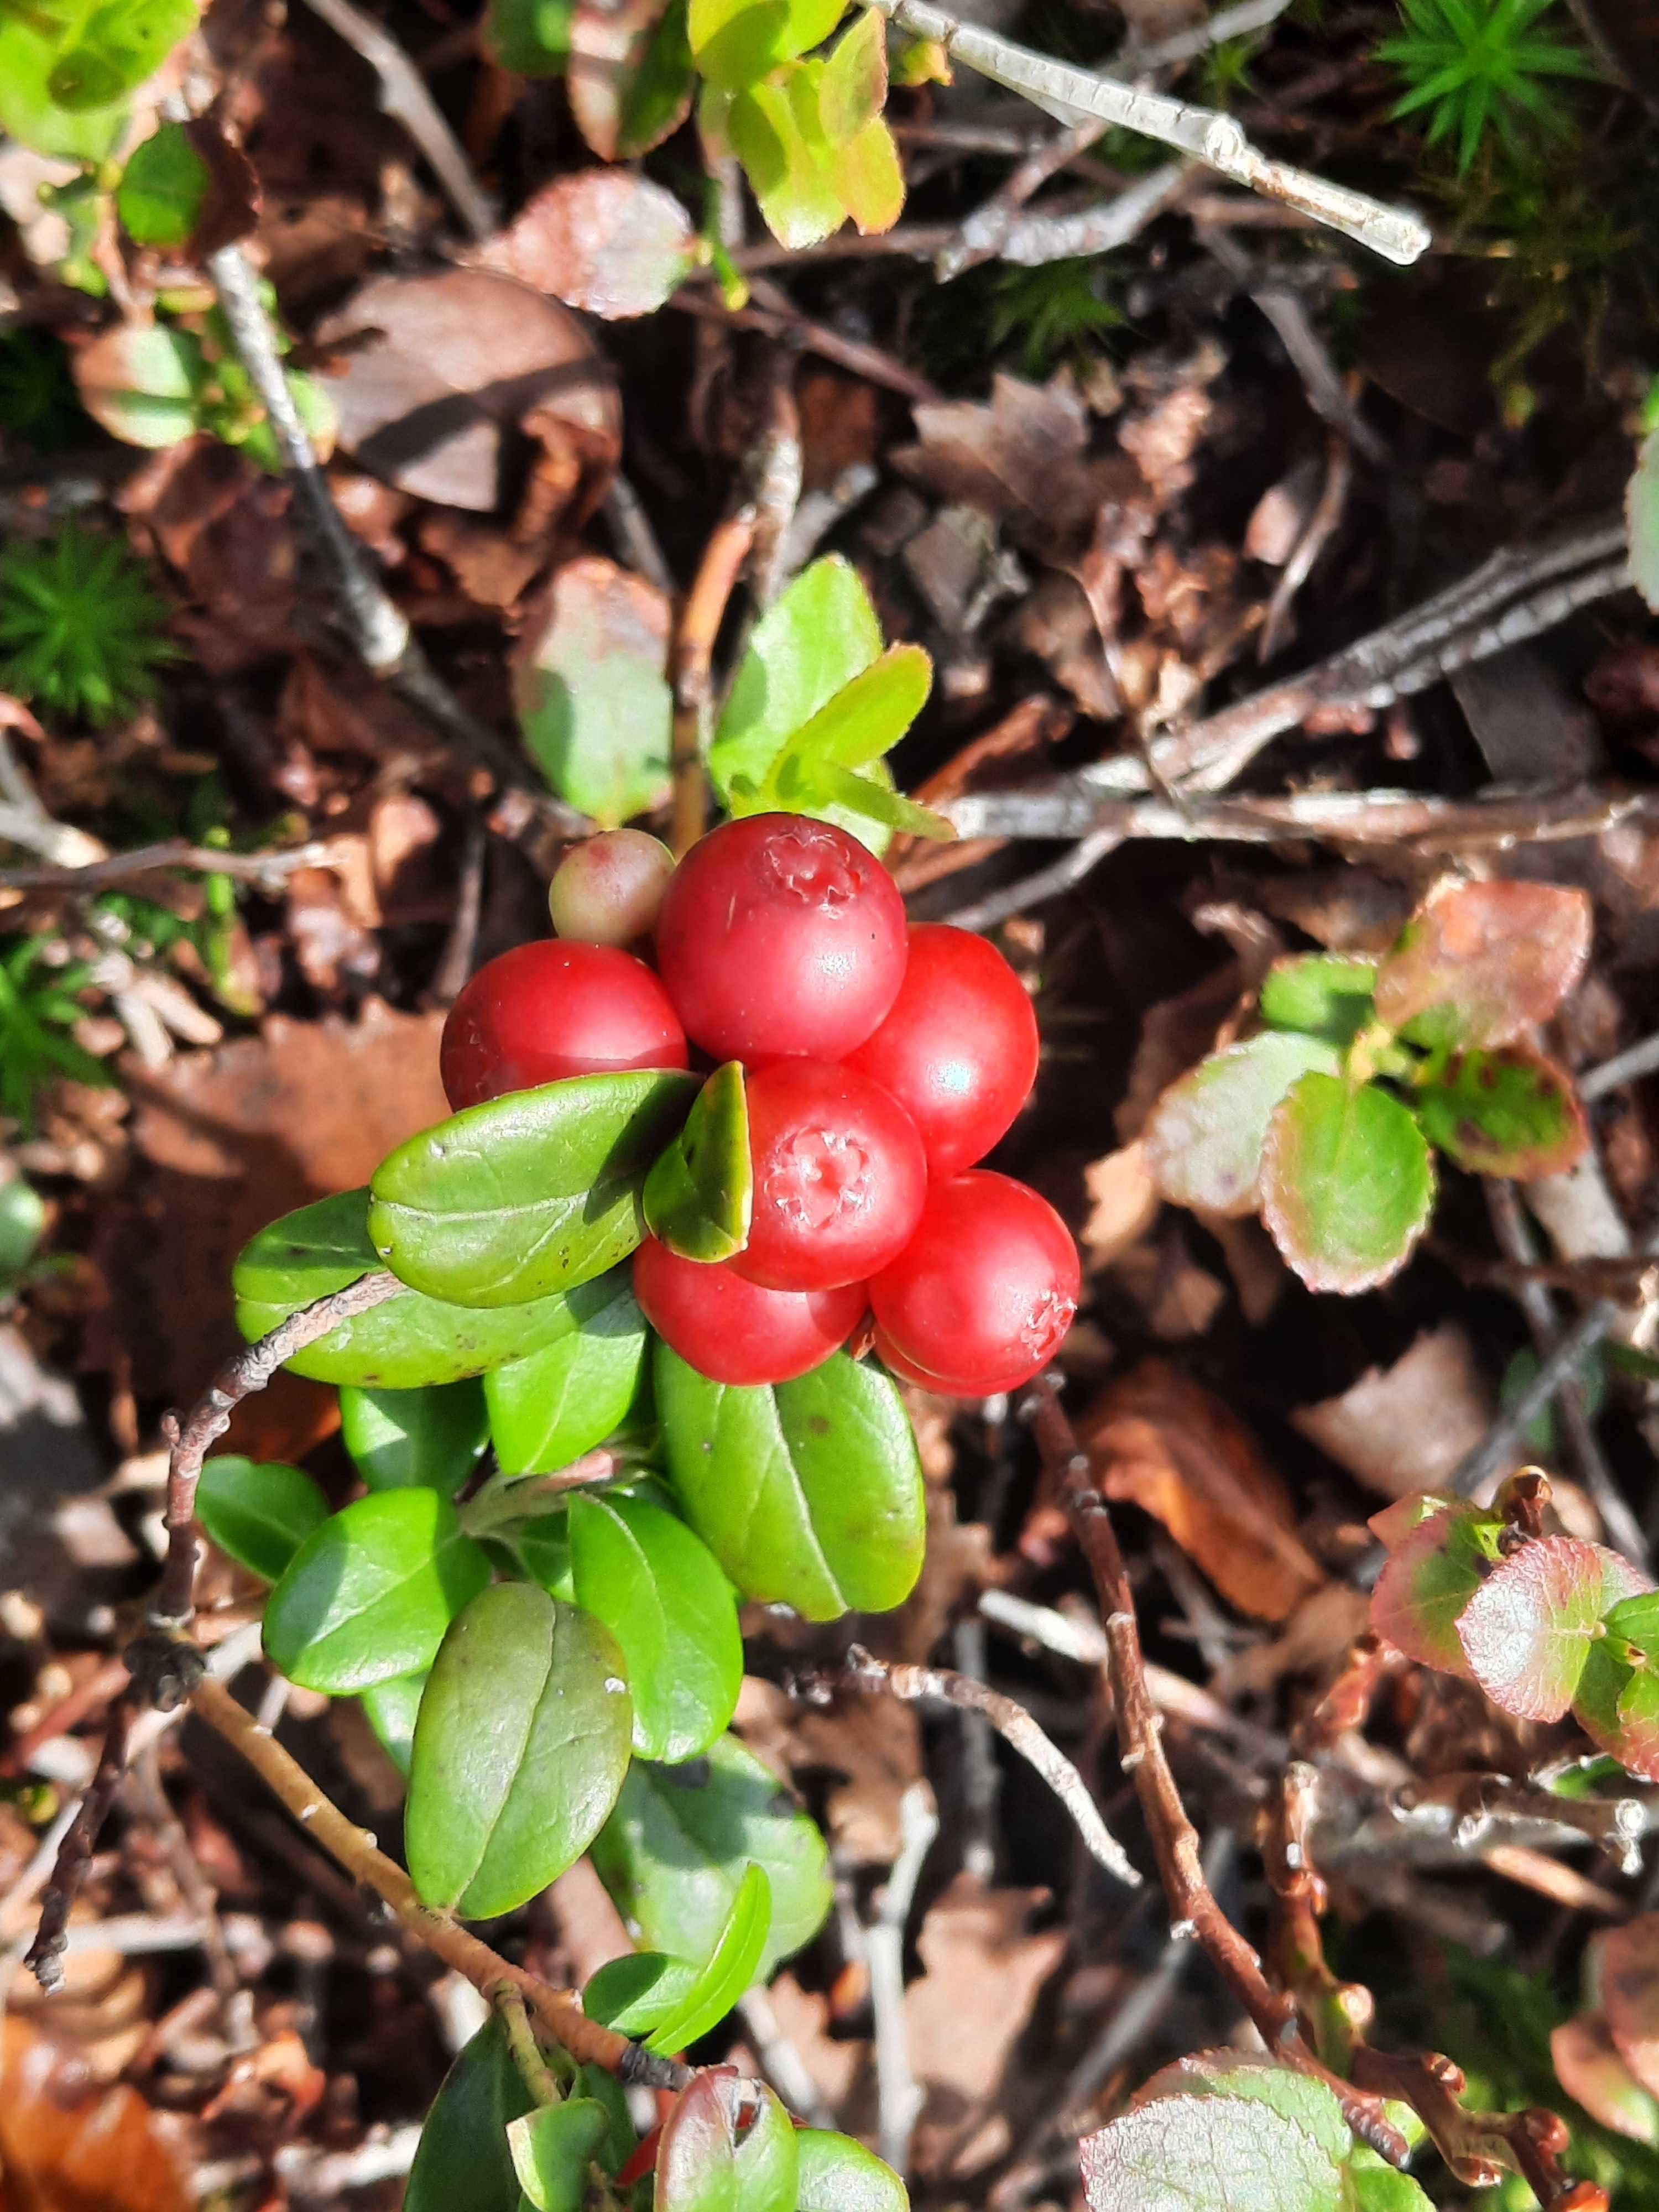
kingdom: Fungi
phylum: Basidiomycota
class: Exobasidiomycetes
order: Exobasidiales
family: Exobasidiaceae
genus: Exobasidium
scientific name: Exobasidium vaccinii
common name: tyttebærblad-bøllesvamp
